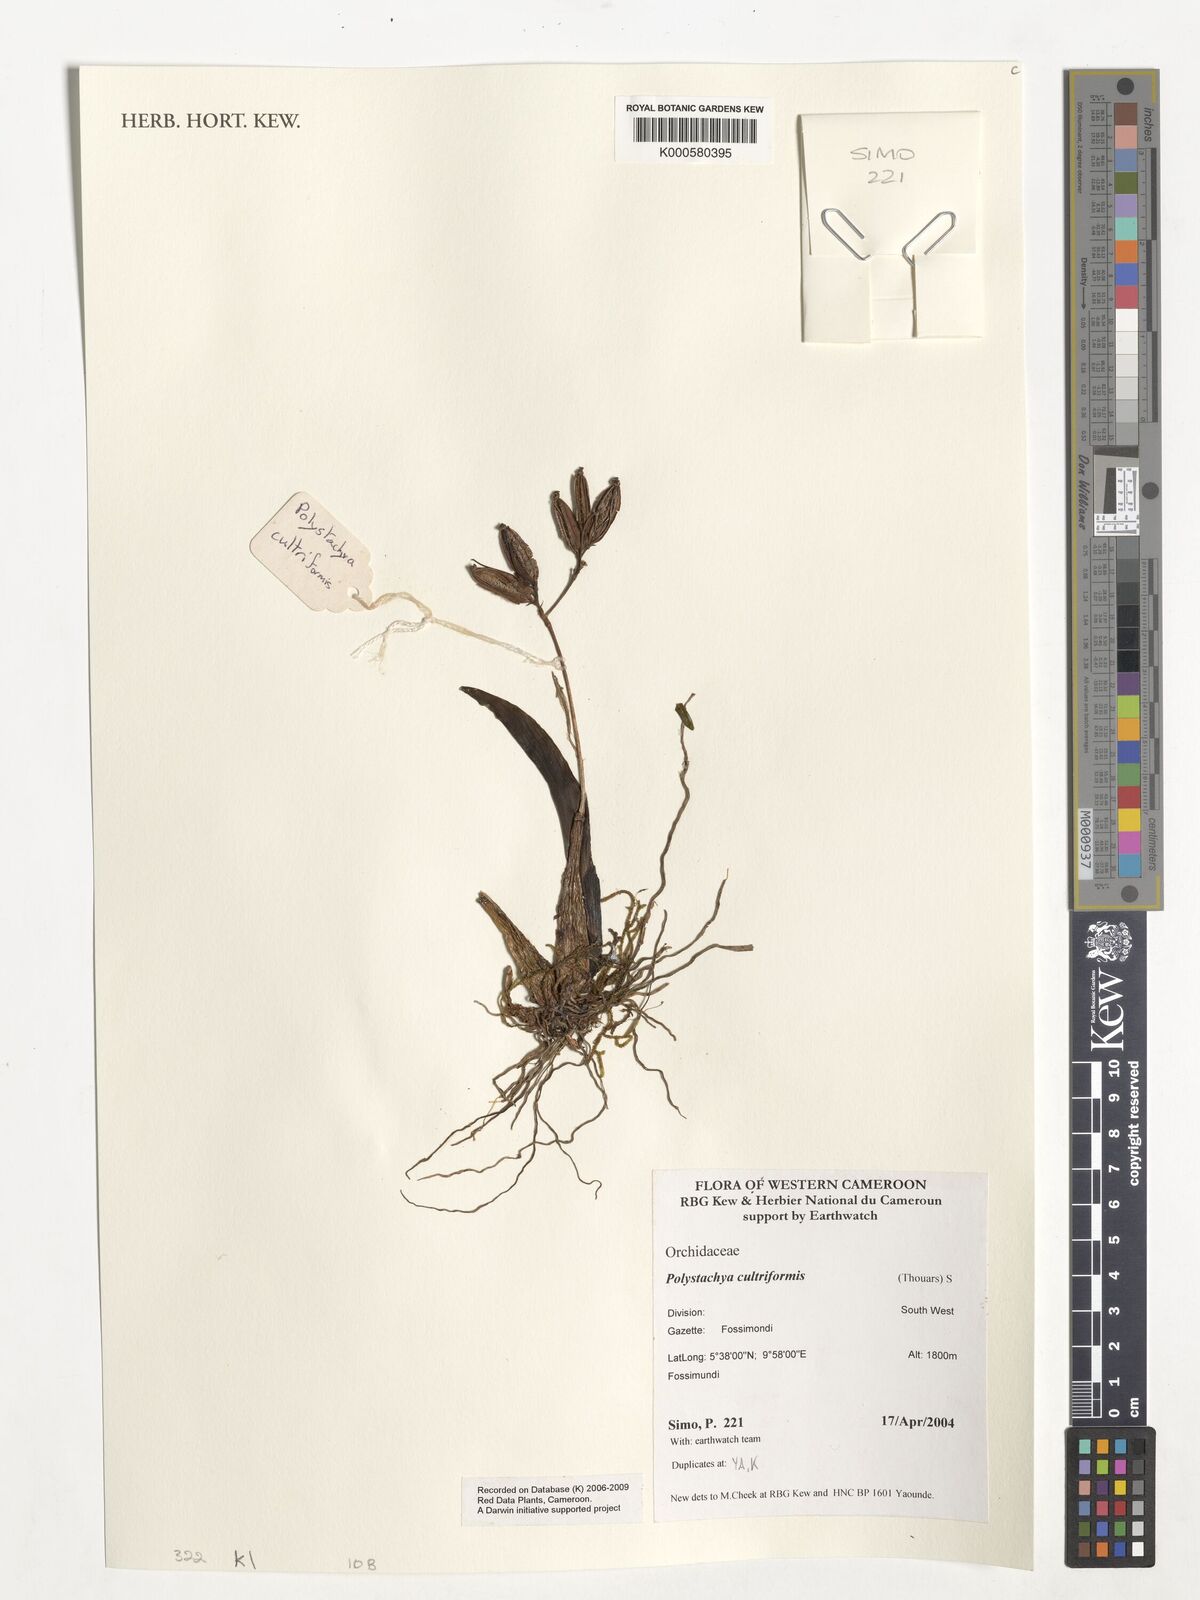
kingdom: Plantae
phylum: Tracheophyta
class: Liliopsida
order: Asparagales
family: Orchidaceae
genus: Polystachya
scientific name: Polystachya cultriformis
